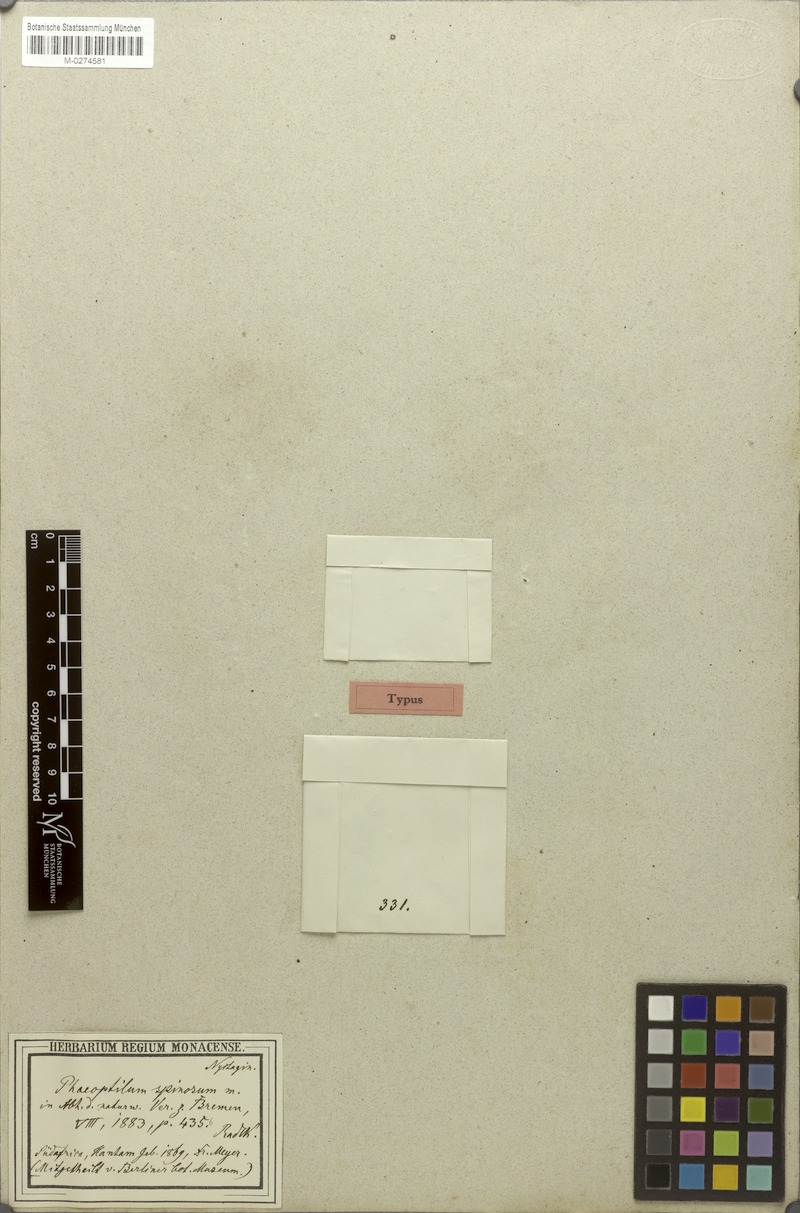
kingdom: Plantae
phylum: Tracheophyta
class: Magnoliopsida
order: Caryophyllales
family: Nyctaginaceae
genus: Phaeoptilum
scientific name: Phaeoptilum spinosum
